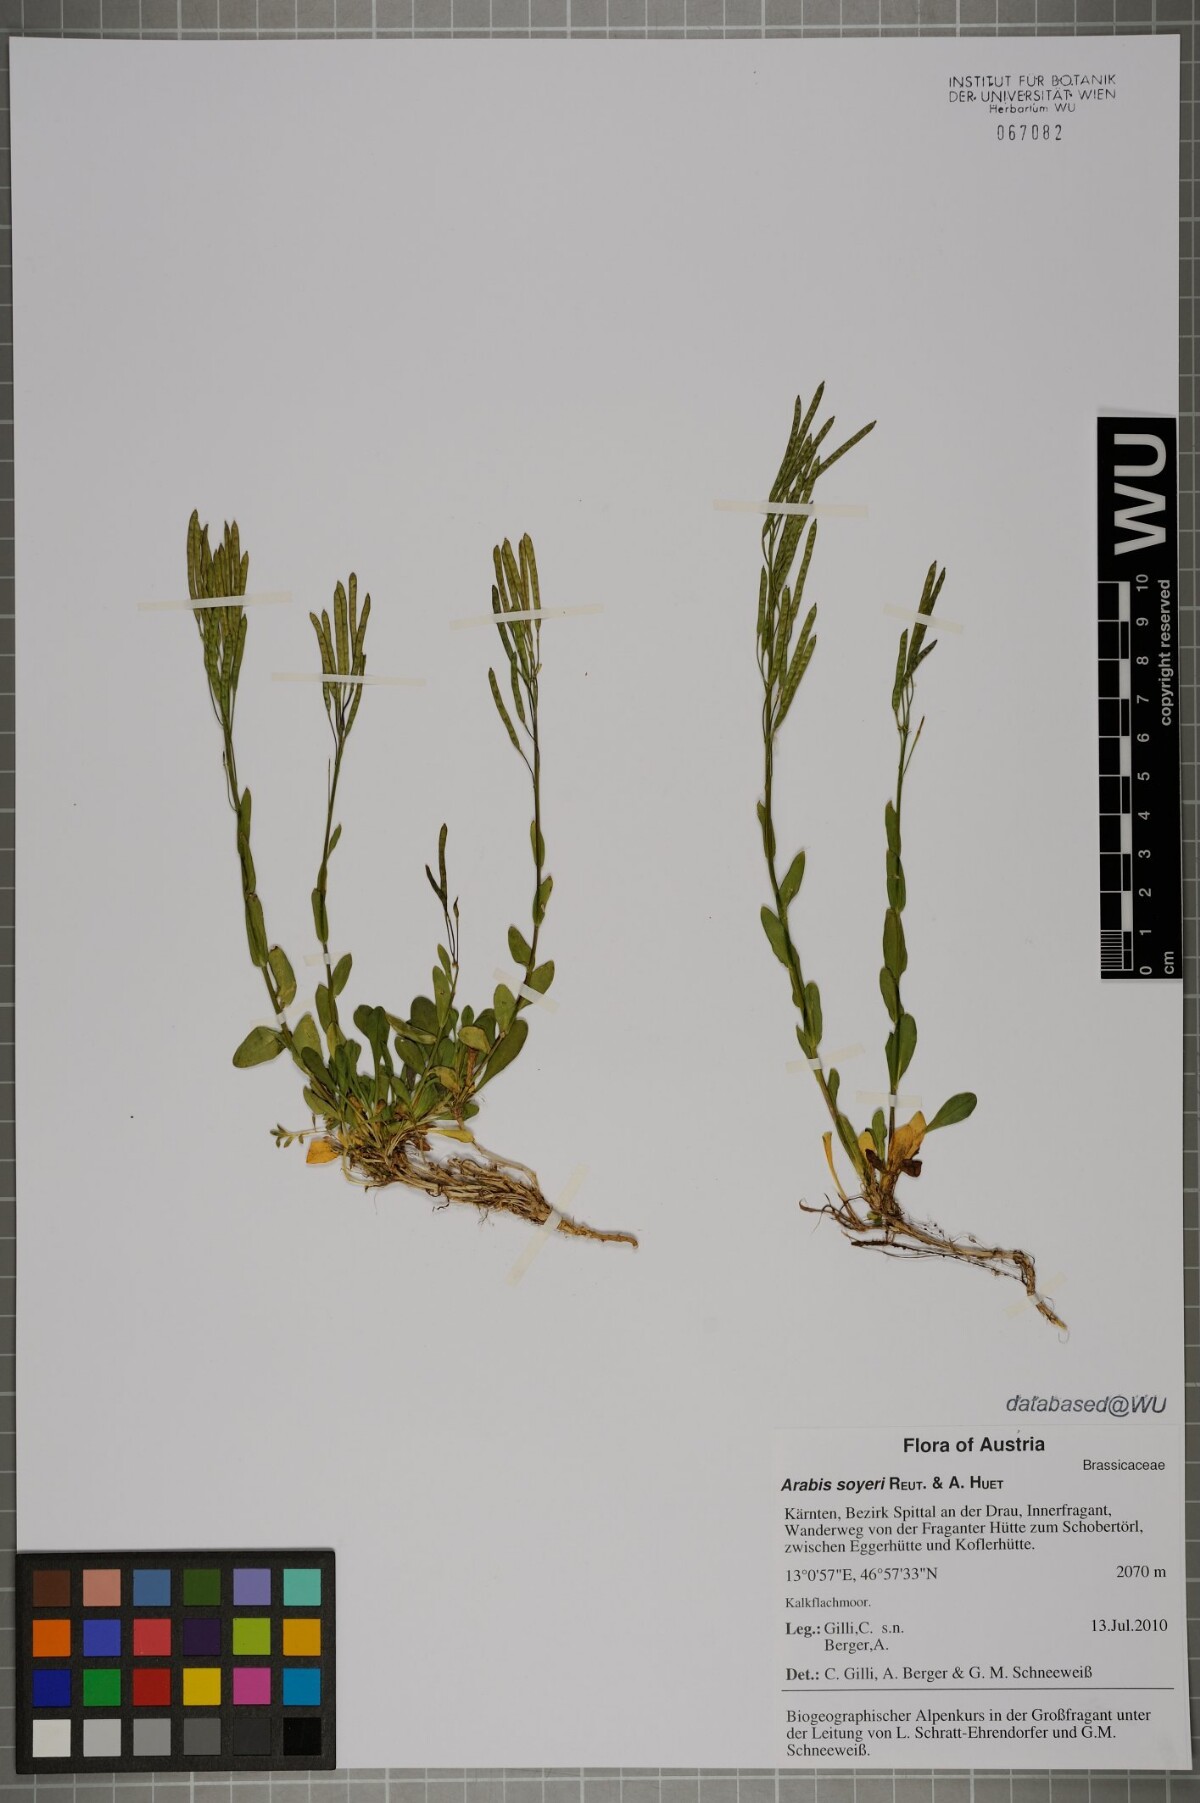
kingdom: Plantae
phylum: Tracheophyta
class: Magnoliopsida
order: Brassicales
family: Brassicaceae
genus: Arabis
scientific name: Arabis soyeri
